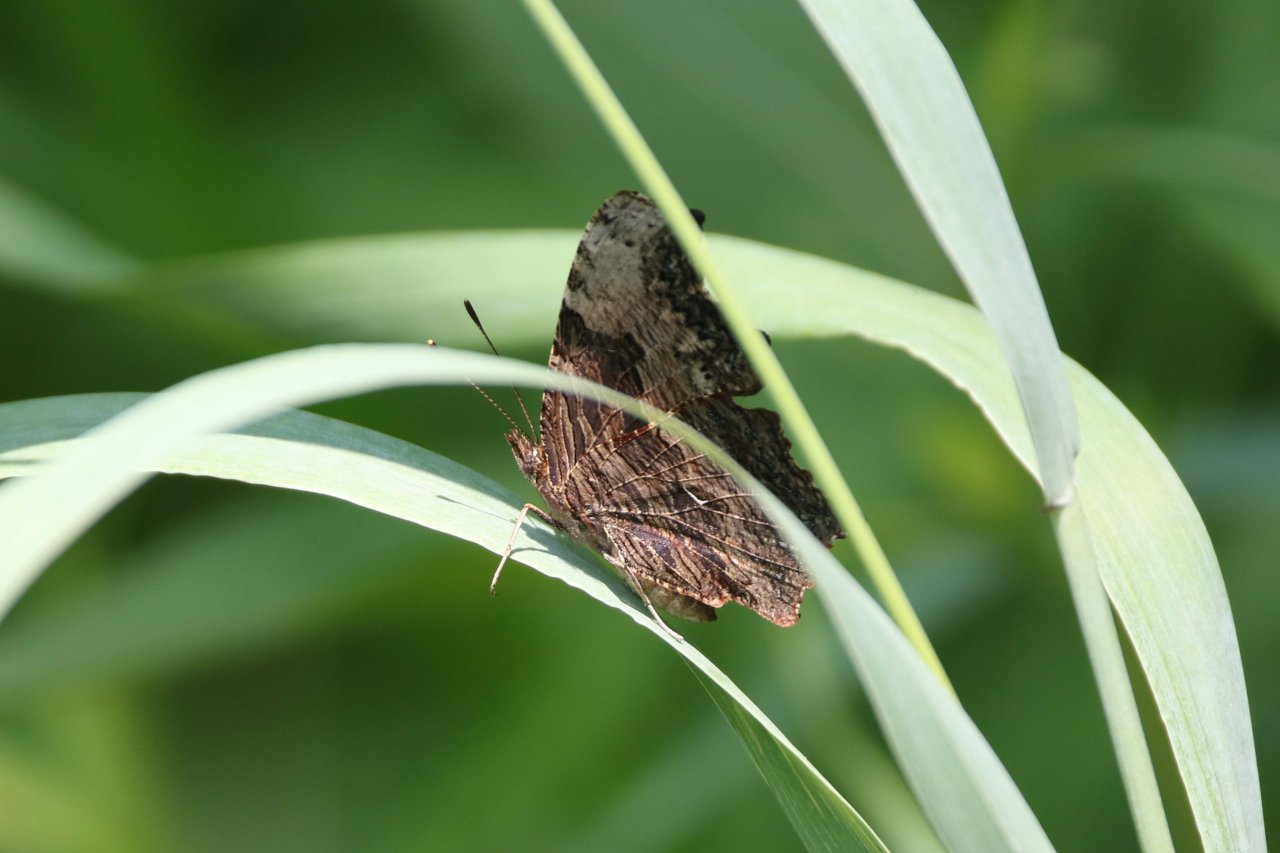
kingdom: Animalia
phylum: Arthropoda
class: Insecta
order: Lepidoptera
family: Nymphalidae
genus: Polygonia
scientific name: Polygonia progne
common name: Gray Comma
